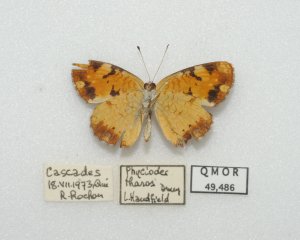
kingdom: Animalia
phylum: Arthropoda
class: Insecta
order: Lepidoptera
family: Nymphalidae
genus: Phyciodes
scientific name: Phyciodes tharos
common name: Northern Crescent
